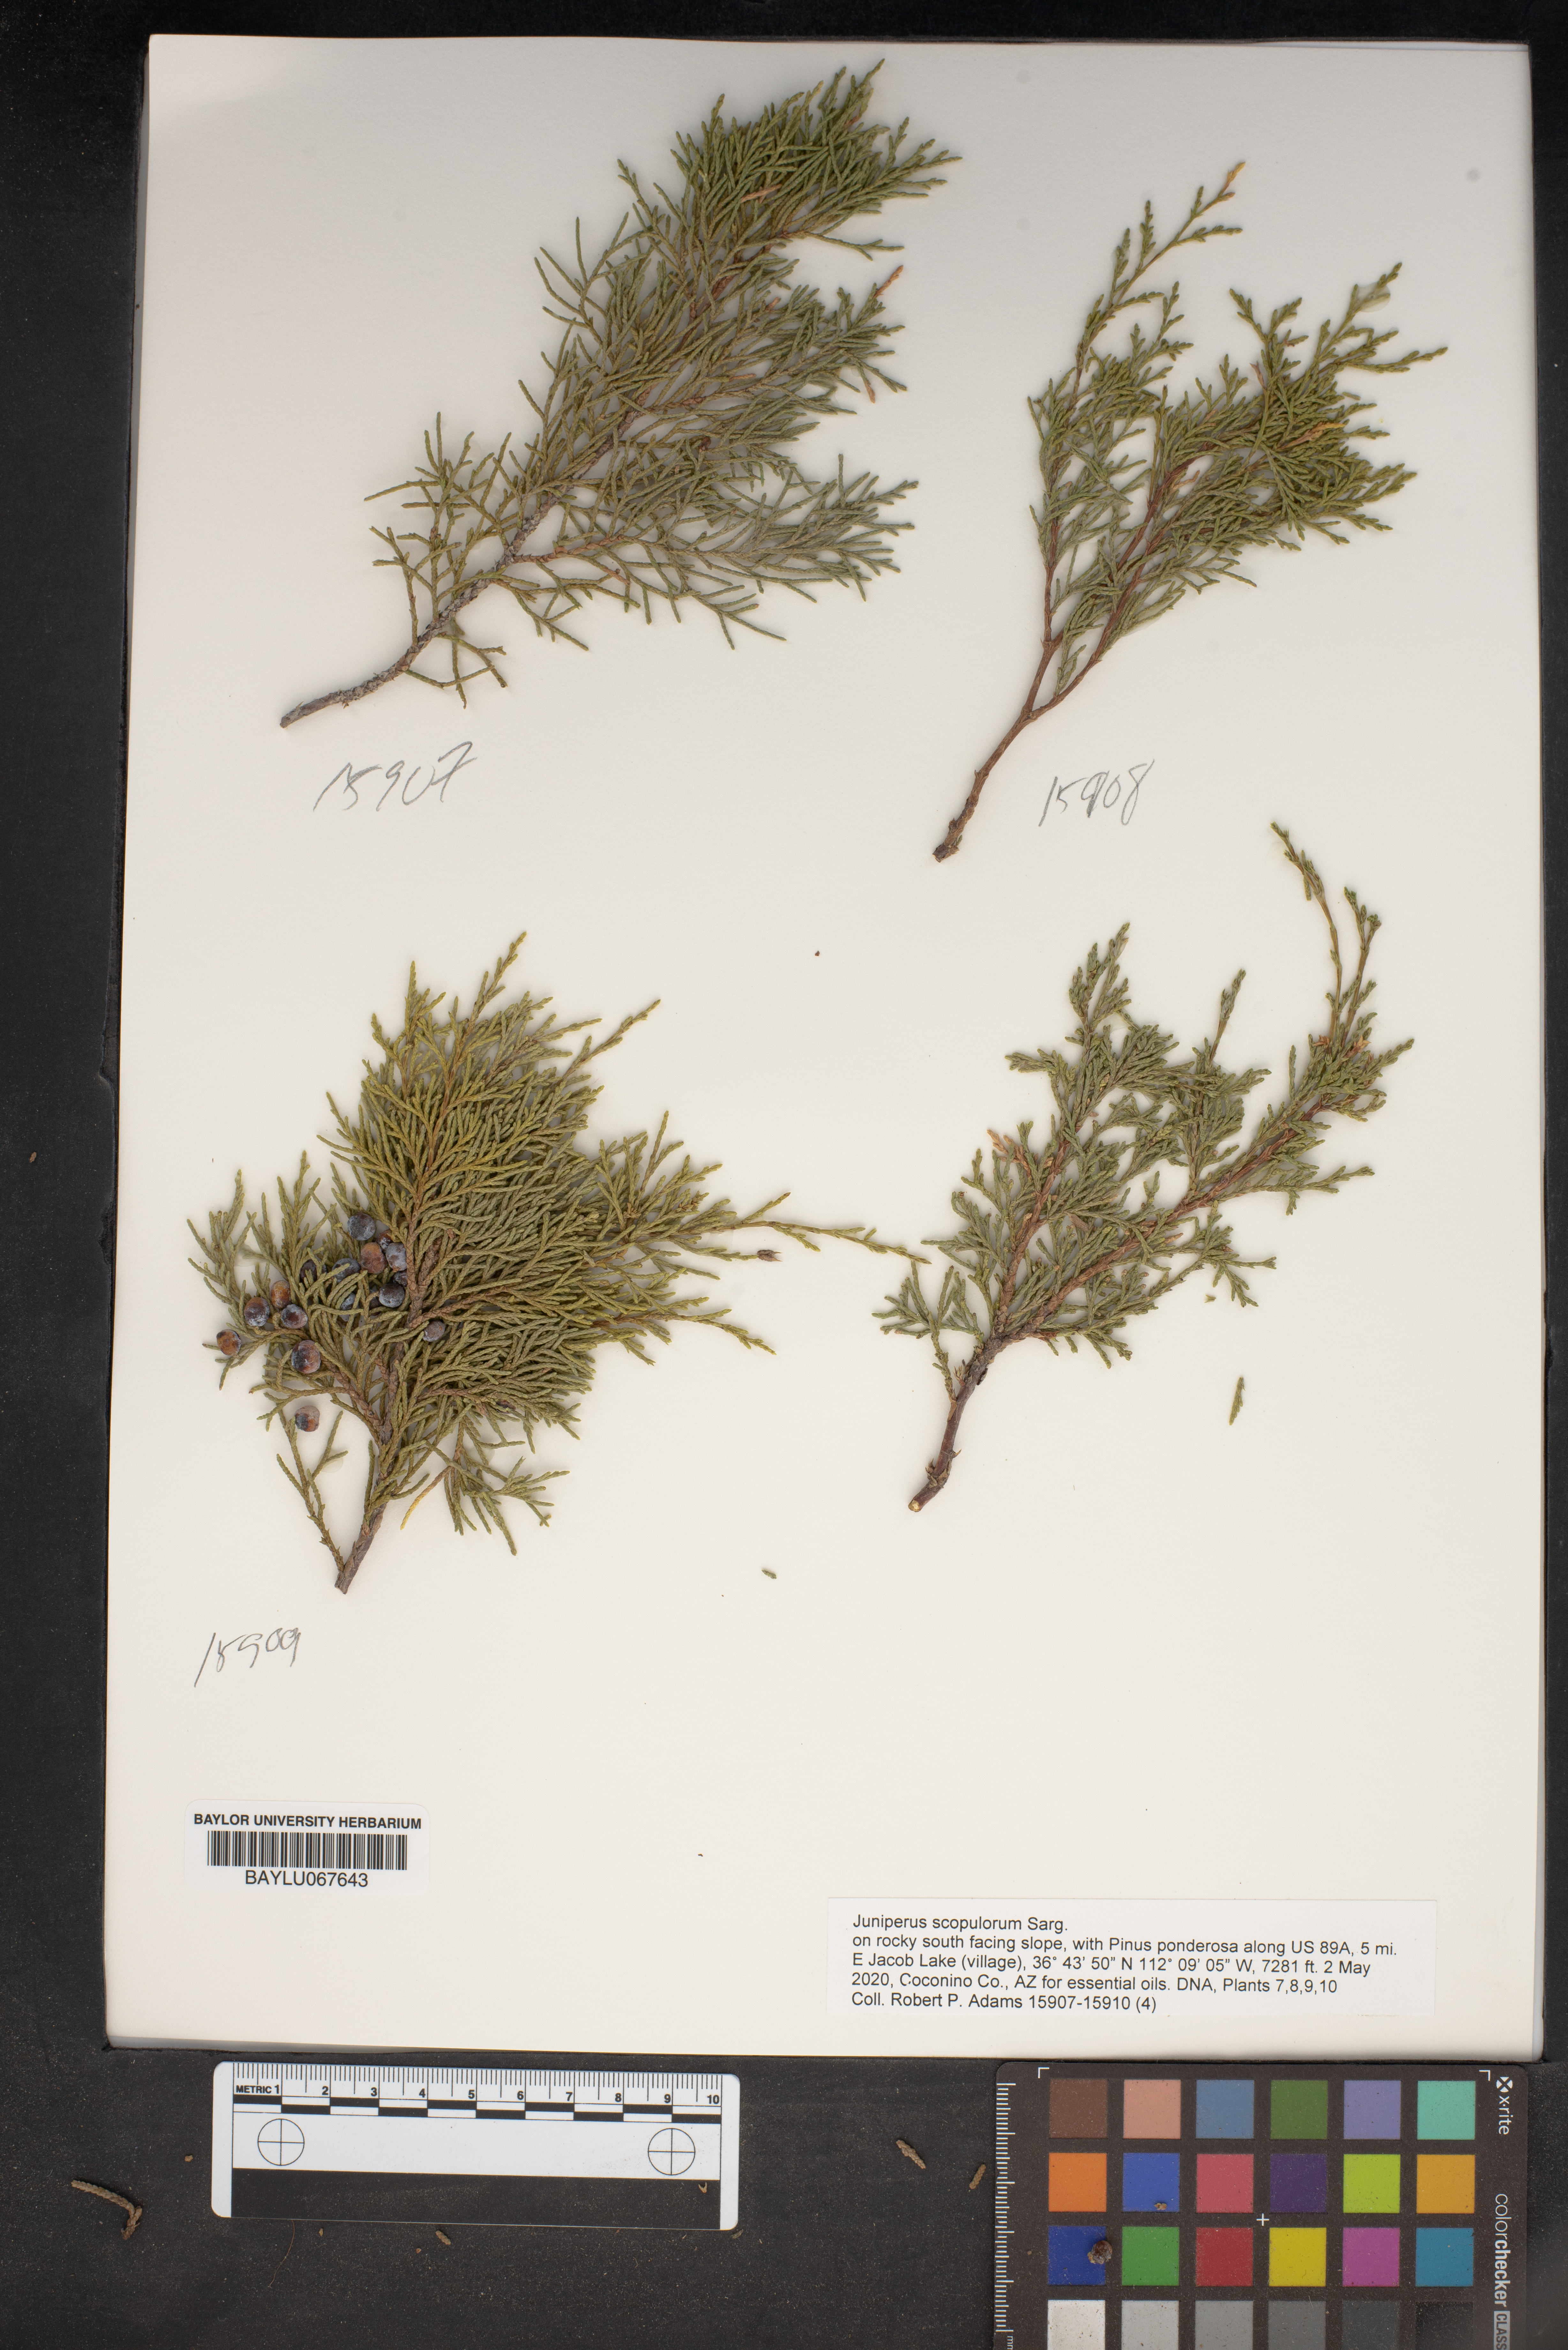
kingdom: Plantae
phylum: Tracheophyta
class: Pinopsida
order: Pinales
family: Cupressaceae
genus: Juniperus
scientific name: Juniperus scopulorum
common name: Rocky mountain juniper
